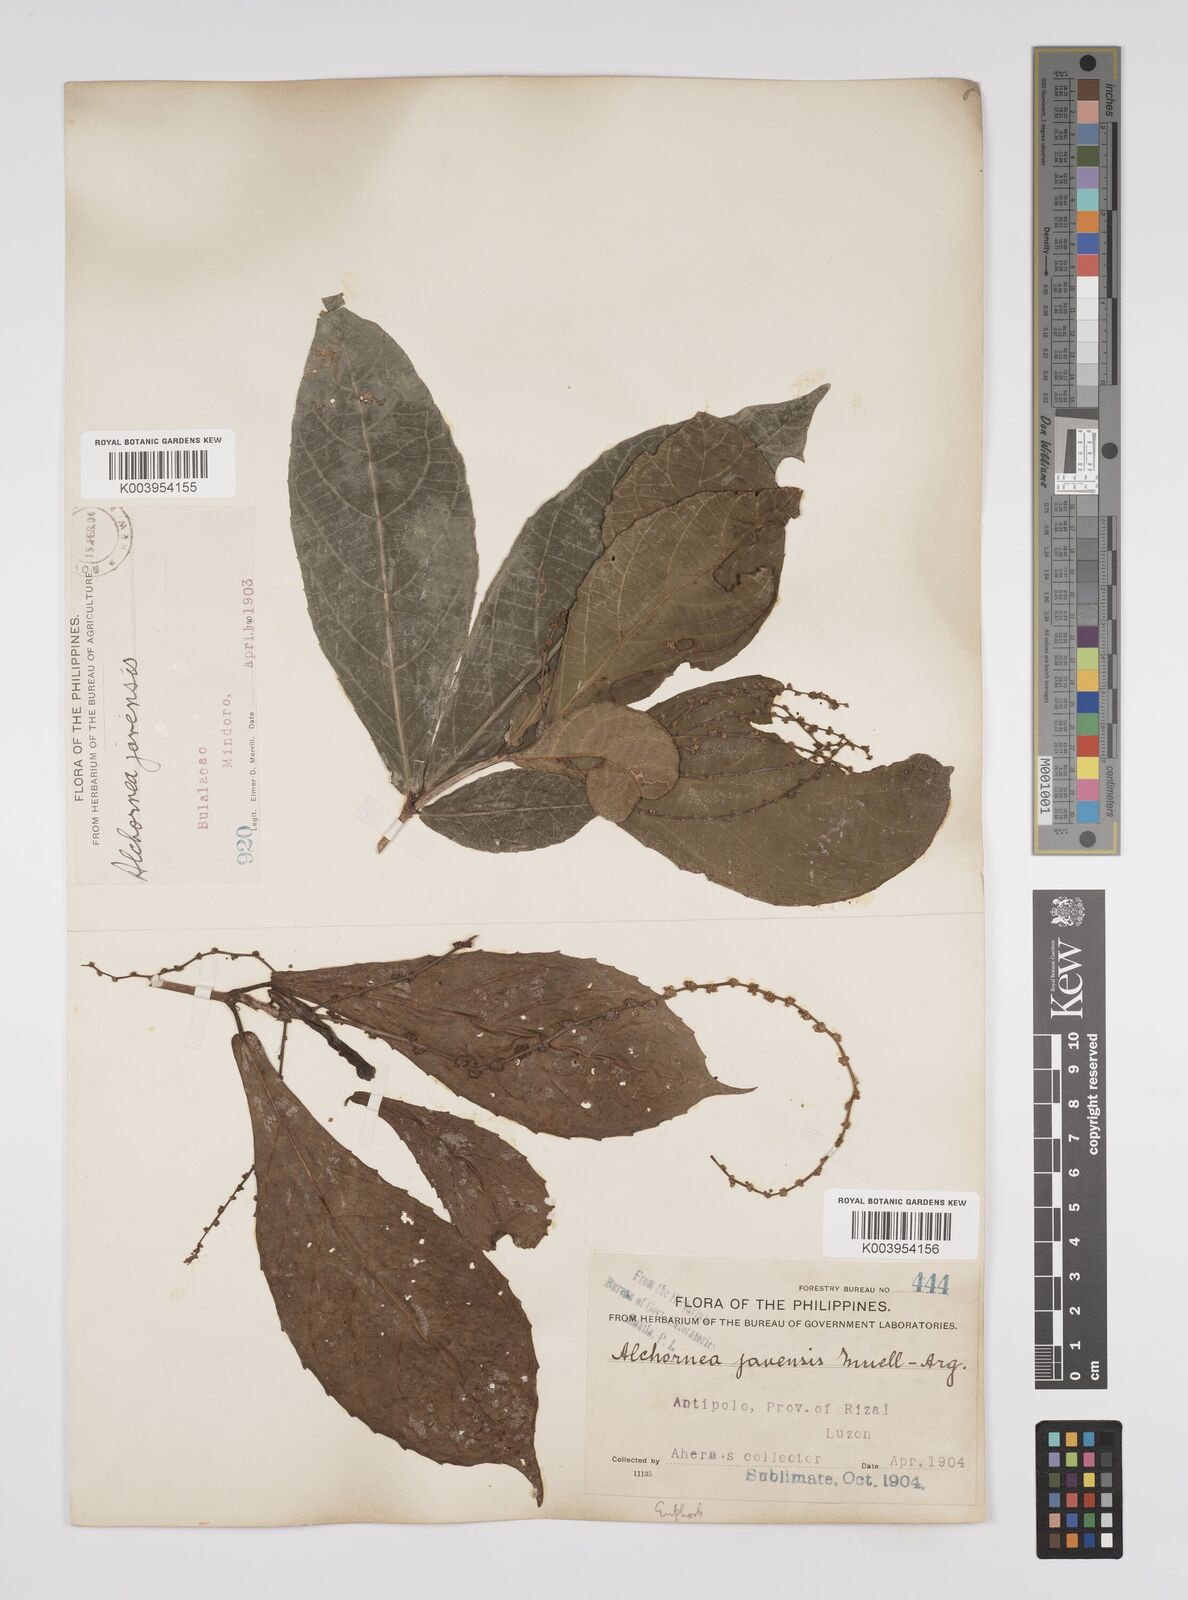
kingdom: Plantae
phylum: Tracheophyta
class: Magnoliopsida
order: Malpighiales
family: Euphorbiaceae
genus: Alchornea
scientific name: Alchornea rugosa
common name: Alchorntree
